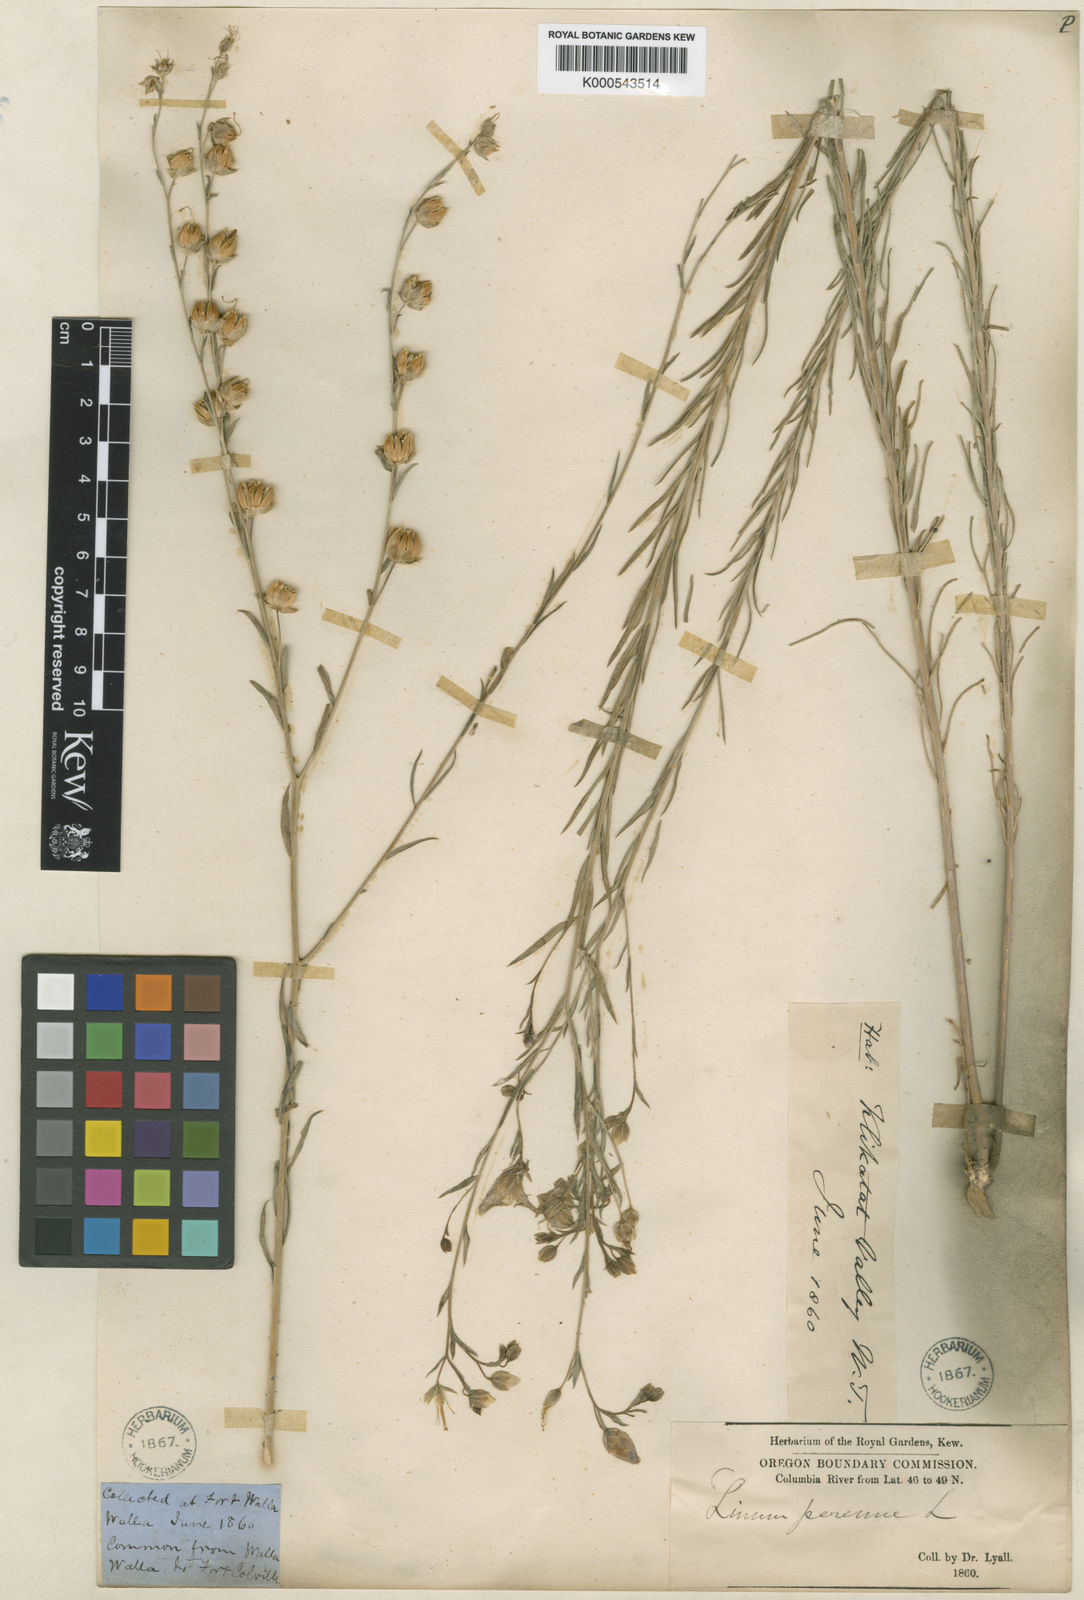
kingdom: Plantae
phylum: Tracheophyta
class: Magnoliopsida
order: Malpighiales
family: Linaceae
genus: Linum
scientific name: Linum perenne
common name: Blue flax
